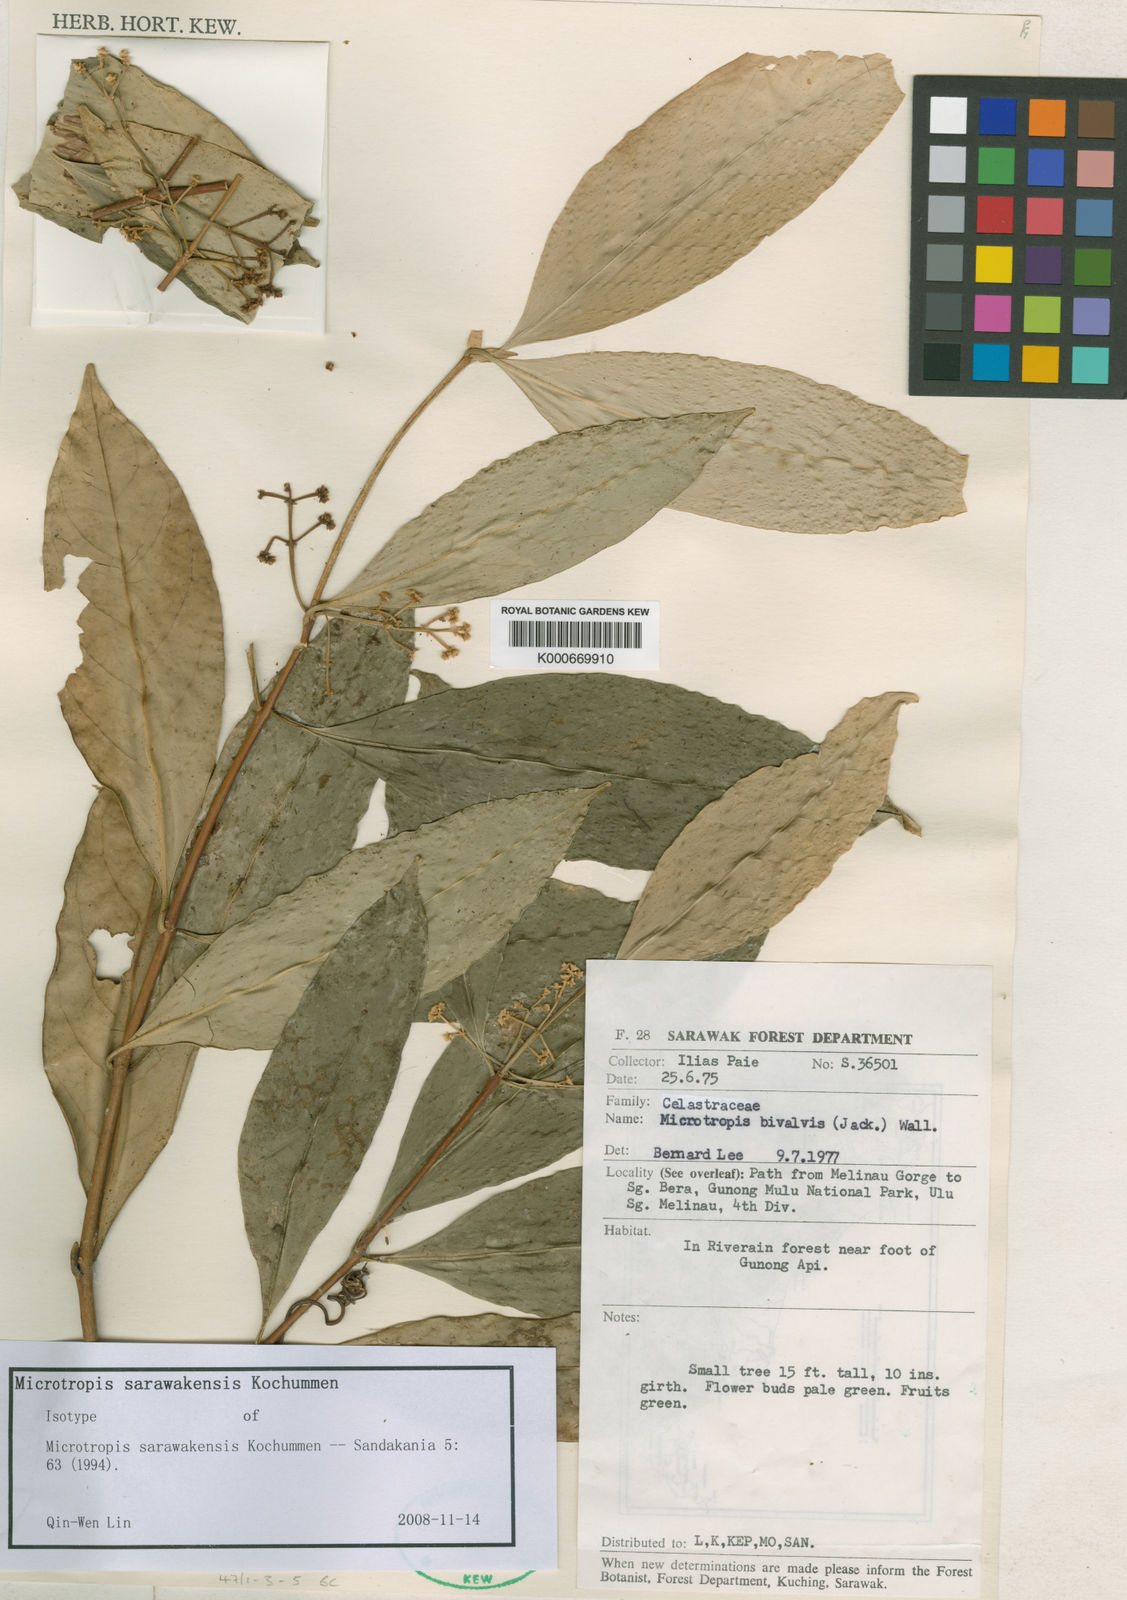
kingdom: Plantae
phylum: Tracheophyta
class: Magnoliopsida
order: Celastrales
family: Celastraceae
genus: Microtropis
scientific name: Microtropis sarawakensis
